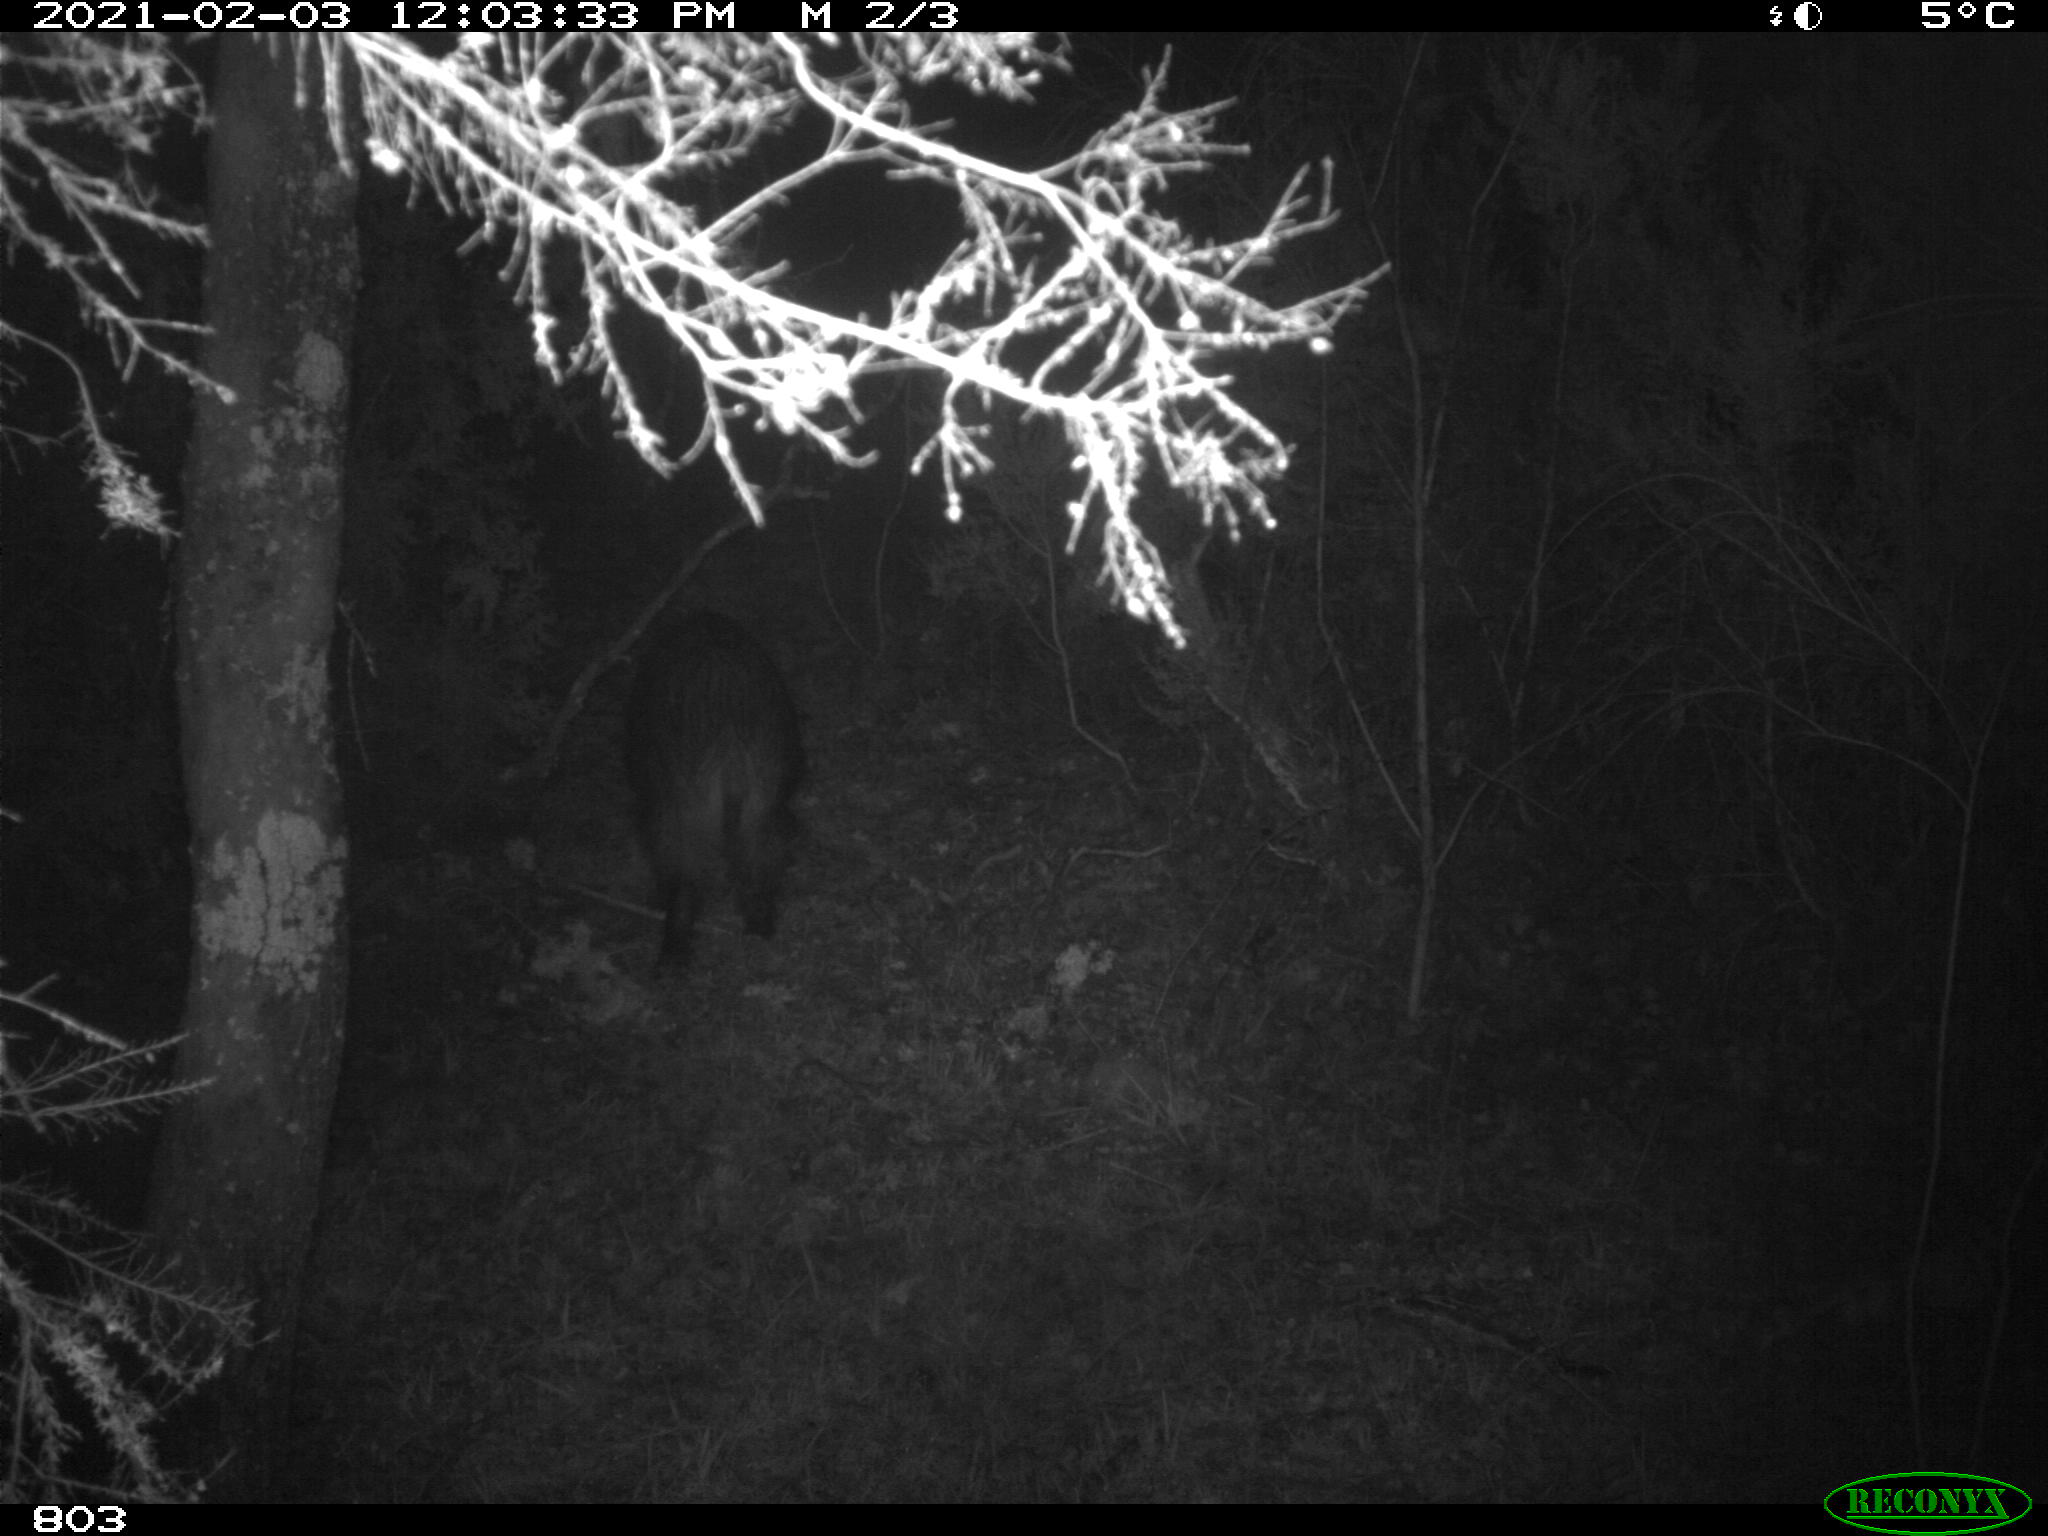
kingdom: Animalia
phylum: Chordata
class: Mammalia
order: Artiodactyla
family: Suidae
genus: Sus
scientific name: Sus scrofa
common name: Wild boar
